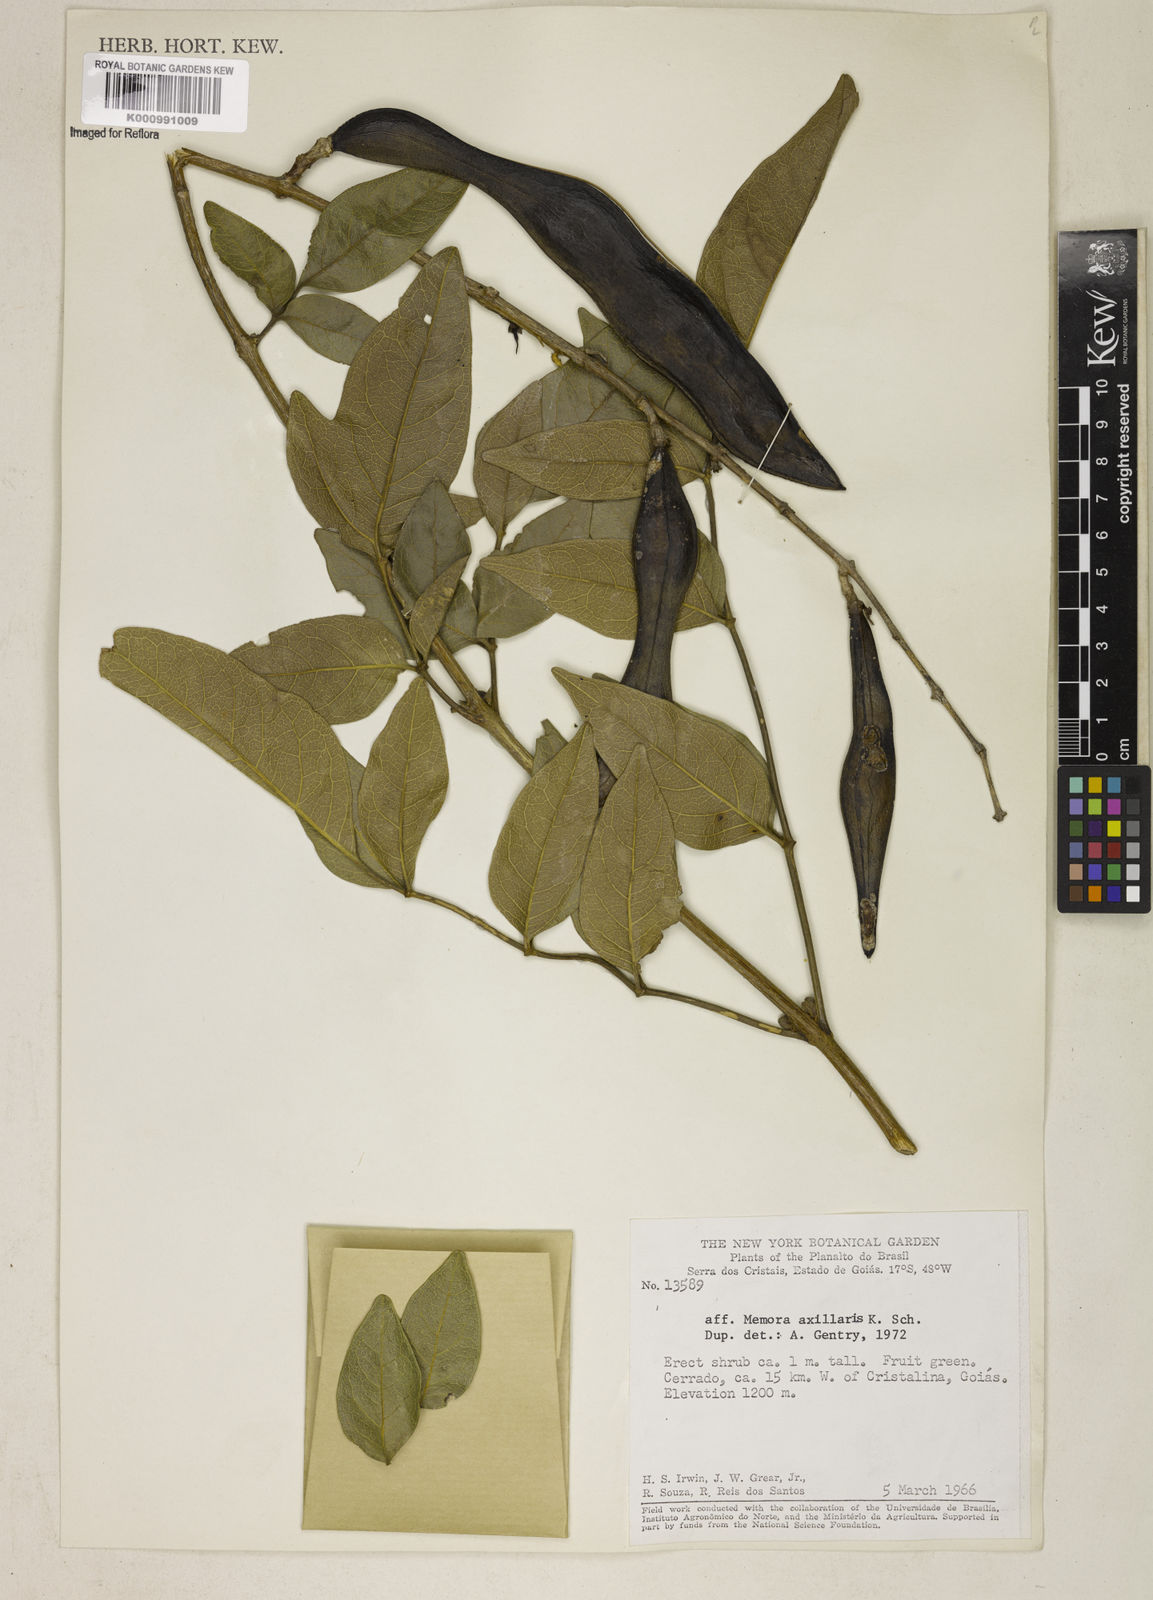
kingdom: Plantae
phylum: Tracheophyta
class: Magnoliopsida
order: Lamiales
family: Bignoniaceae
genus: Adenocalymma
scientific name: Adenocalymma axillare
